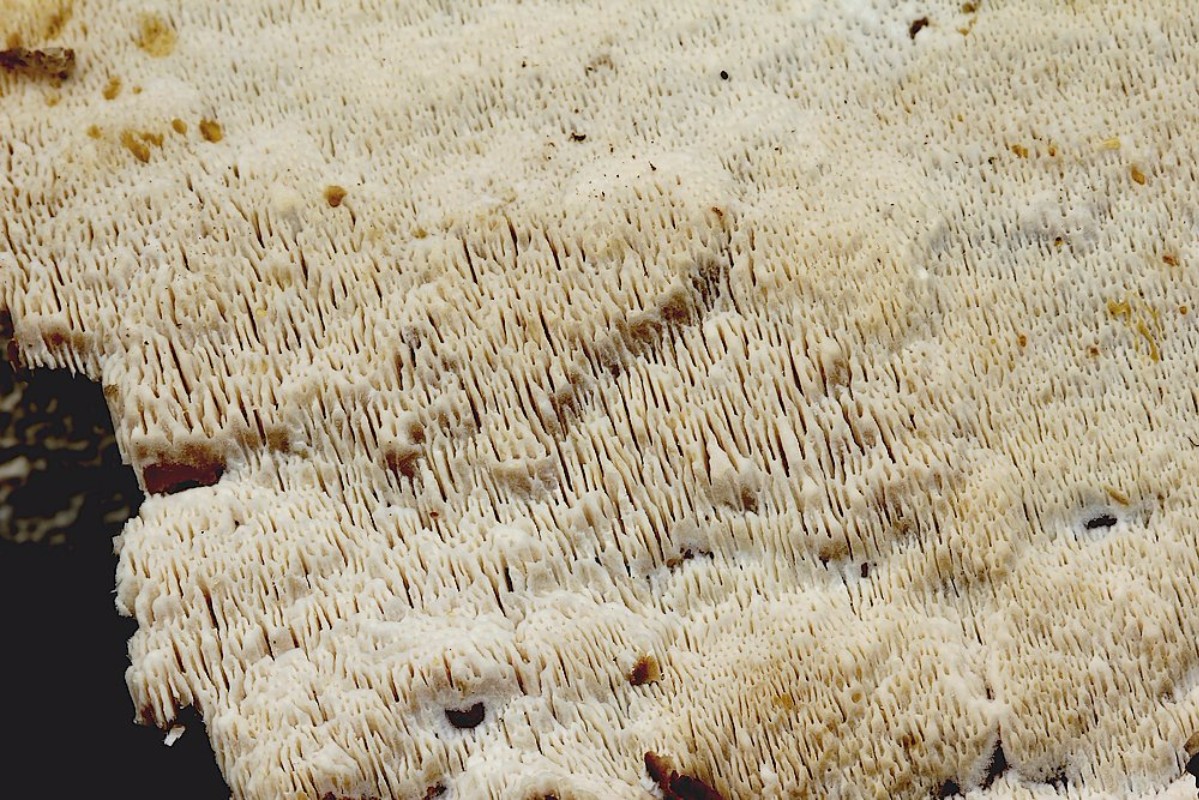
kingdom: Fungi
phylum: Basidiomycota
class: Agaricomycetes
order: Hymenochaetales
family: Schizoporaceae
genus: Xylodon
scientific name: Xylodon subtropicus
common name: labyrint-tandsvamp
